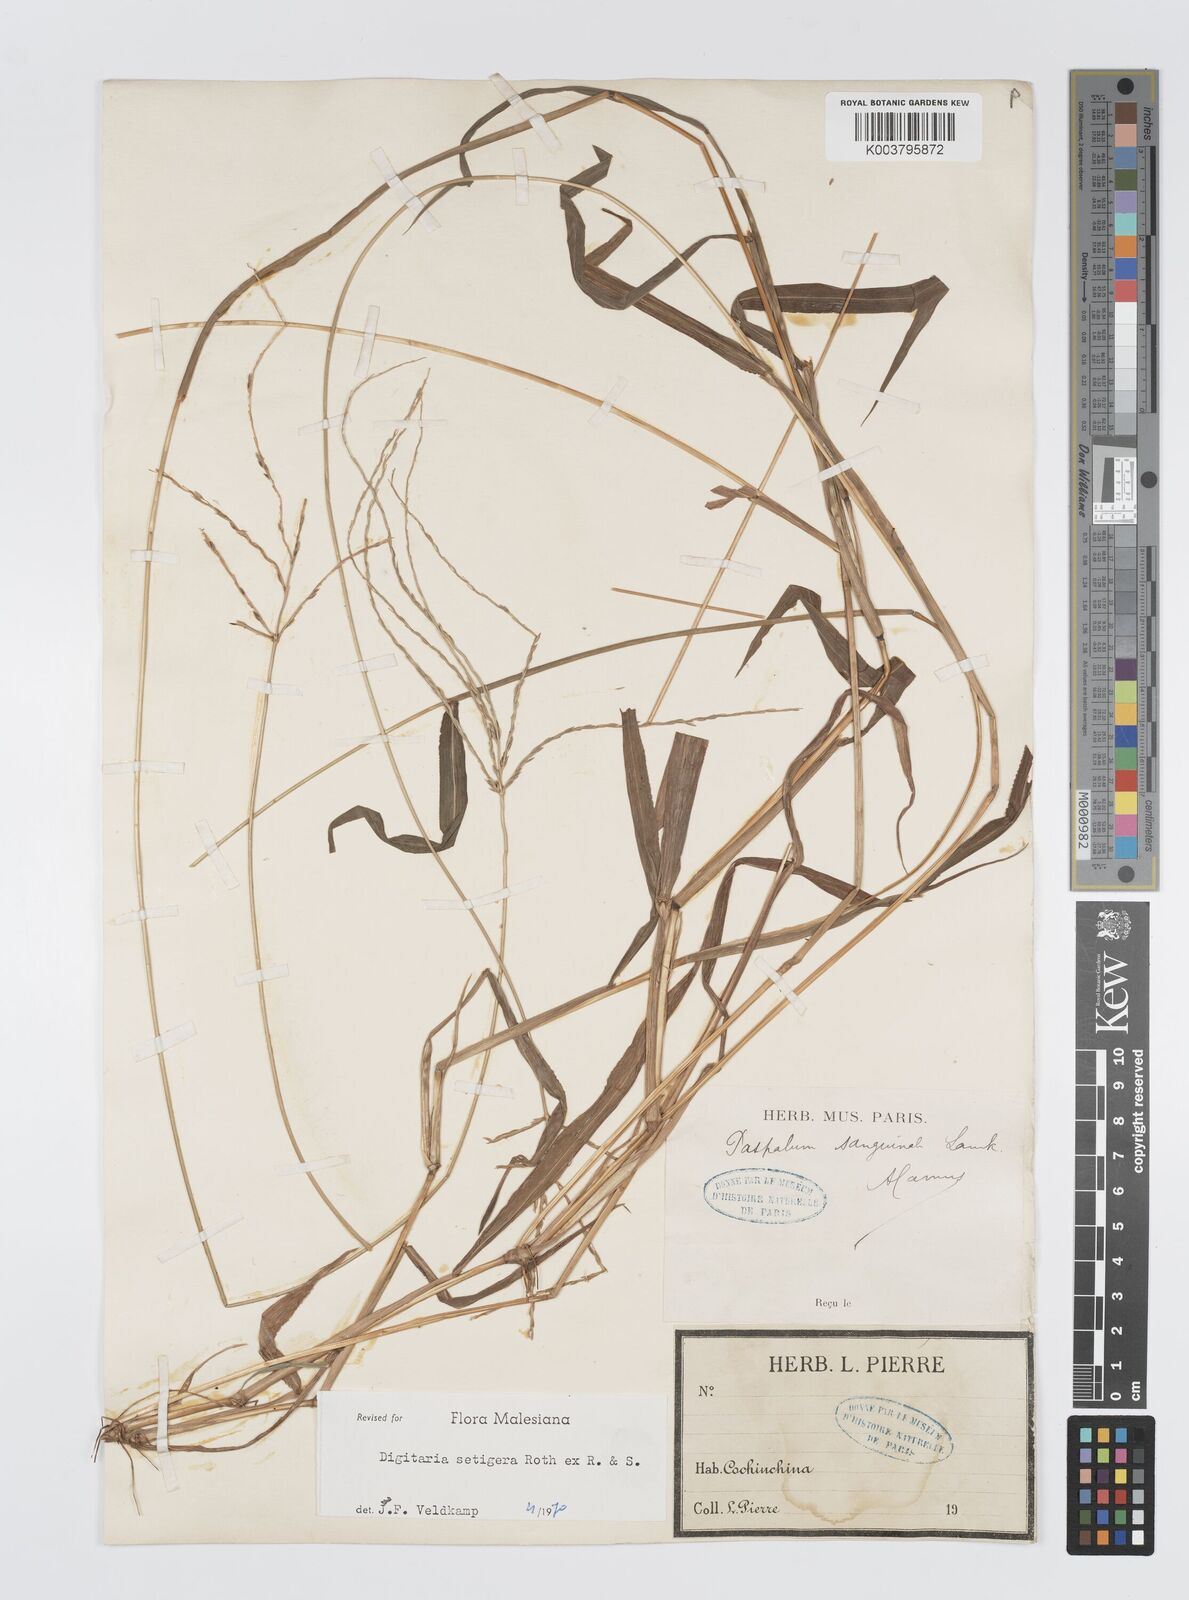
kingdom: Plantae
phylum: Tracheophyta
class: Liliopsida
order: Poales
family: Poaceae
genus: Digitaria
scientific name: Digitaria setigera
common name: East indian crabgrass
